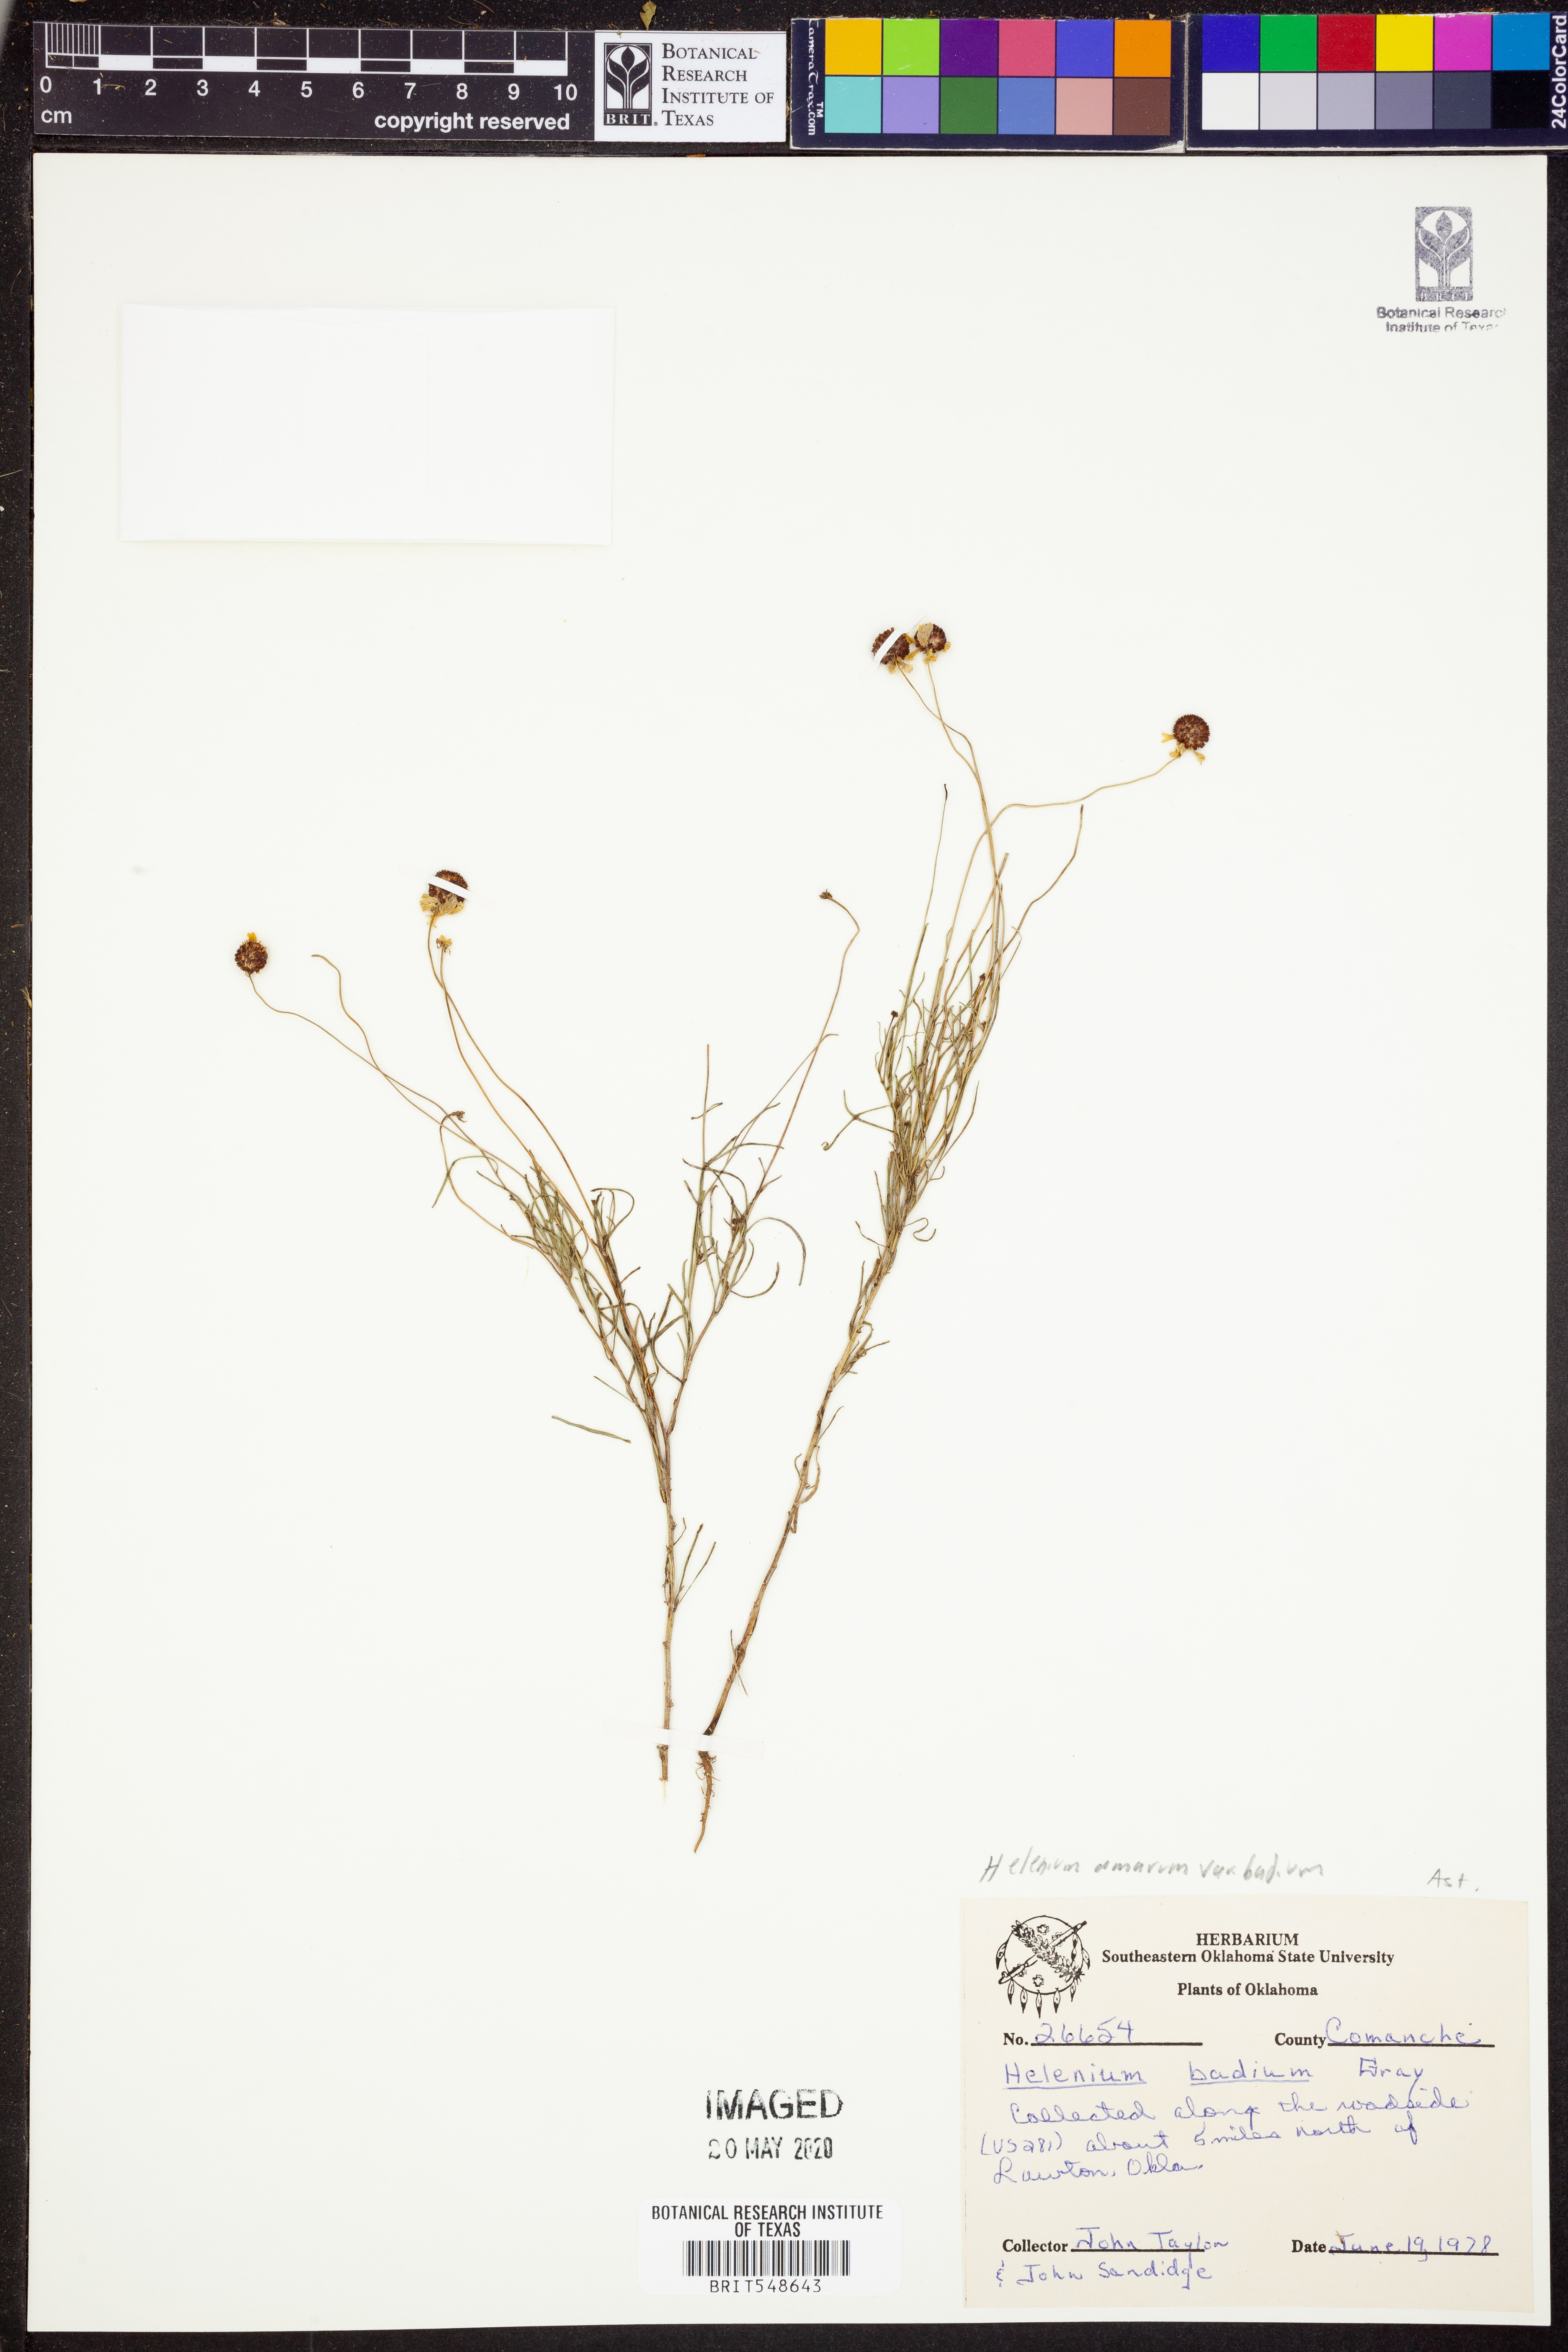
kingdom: Plantae
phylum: Tracheophyta
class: Magnoliopsida
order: Asterales
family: Asteraceae
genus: Helenium
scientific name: Helenium amarum
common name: Bitter sneezeweed
